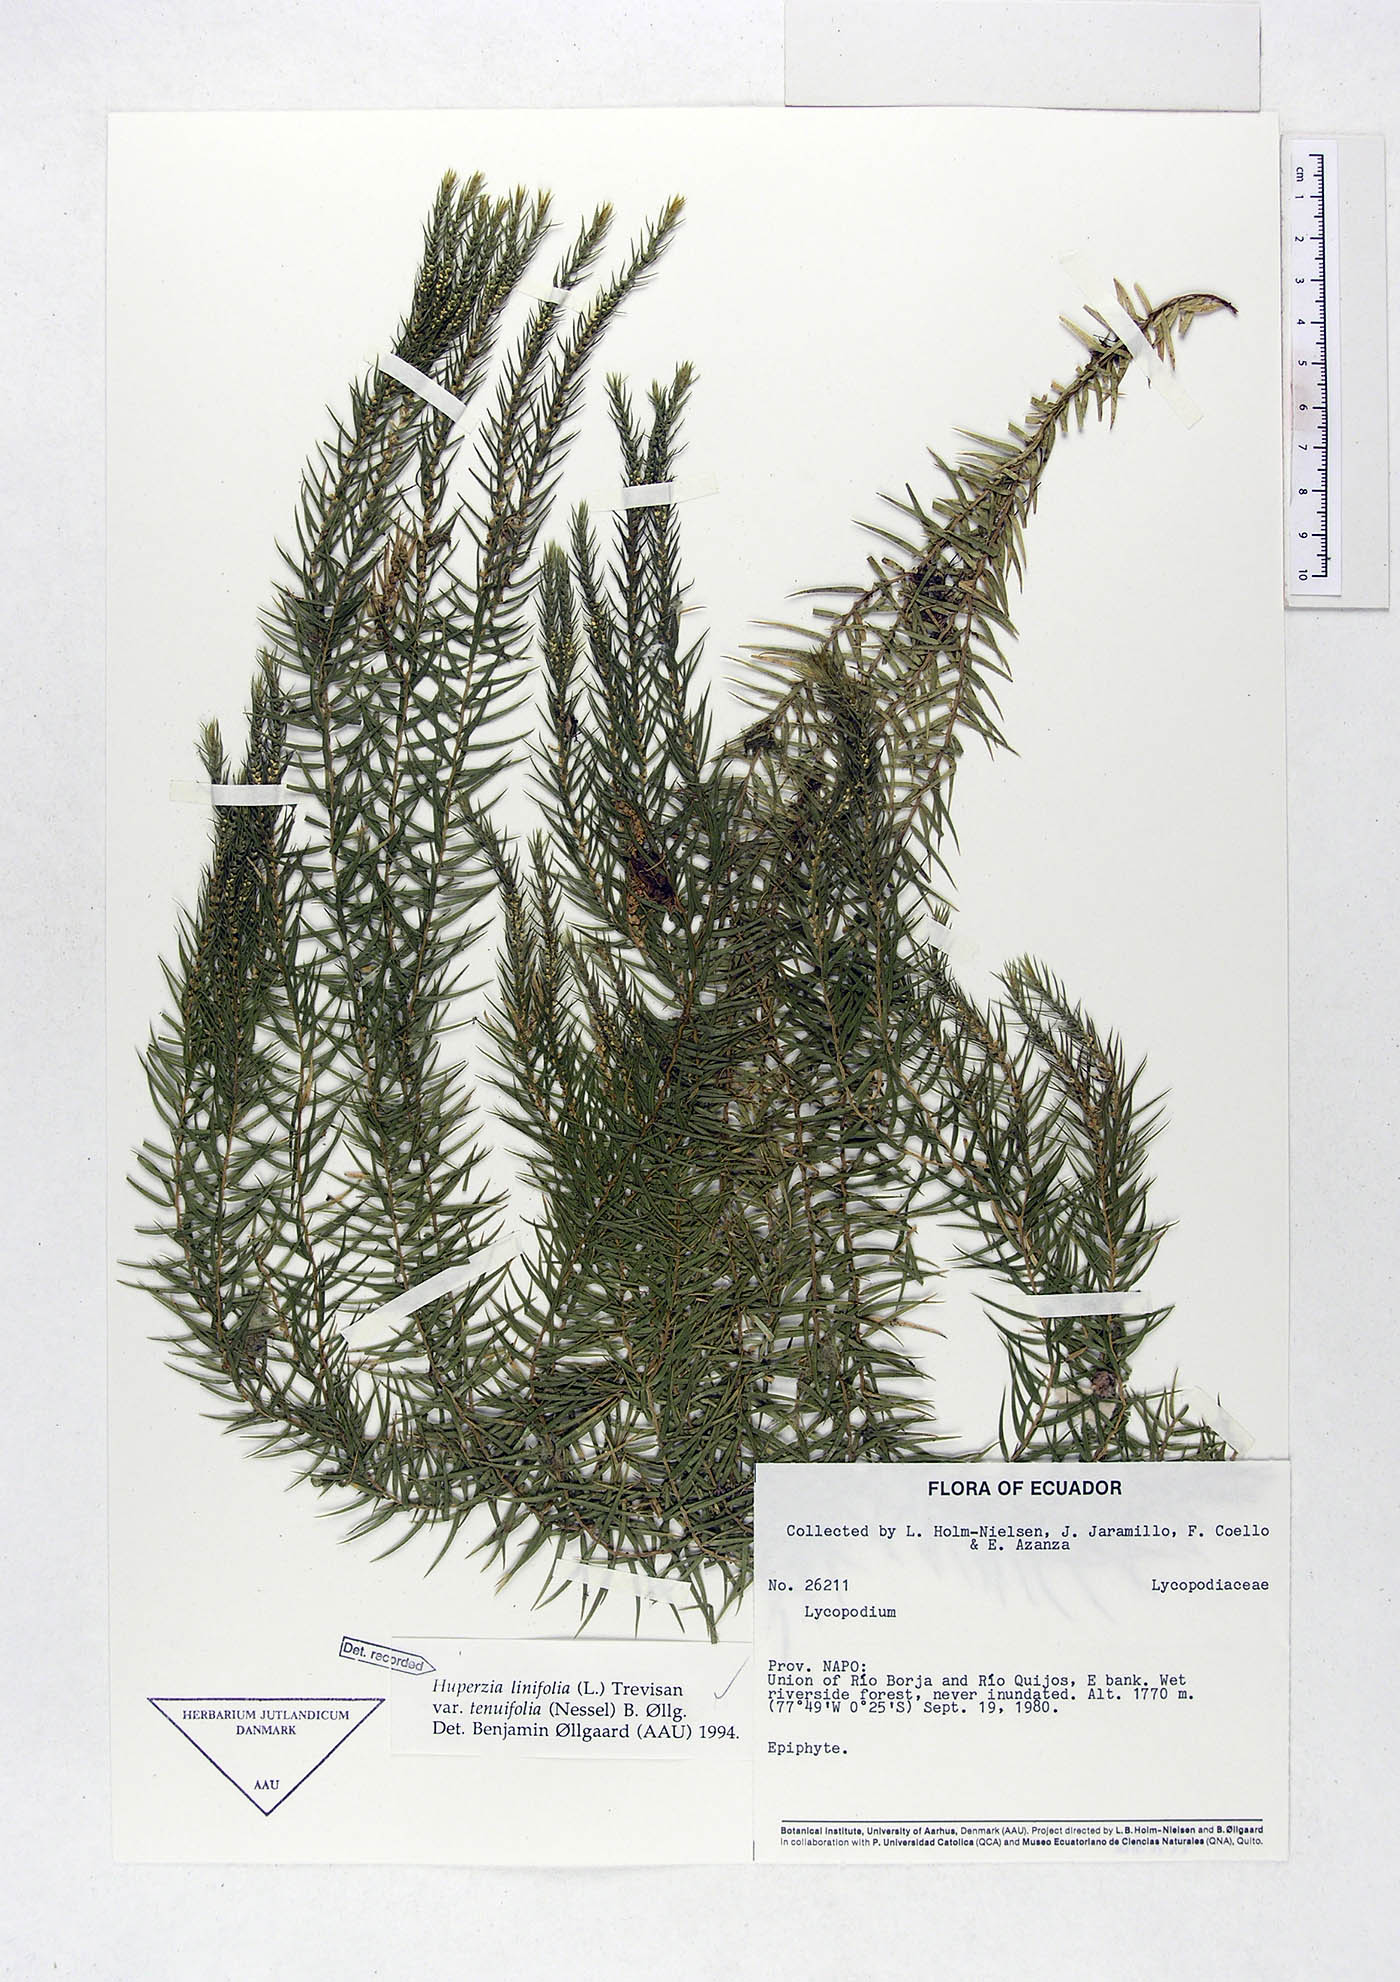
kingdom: Plantae
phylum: Tracheophyta
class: Lycopodiopsida
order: Lycopodiales
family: Lycopodiaceae
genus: Phlegmariurus
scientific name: Phlegmariurus linifolius
